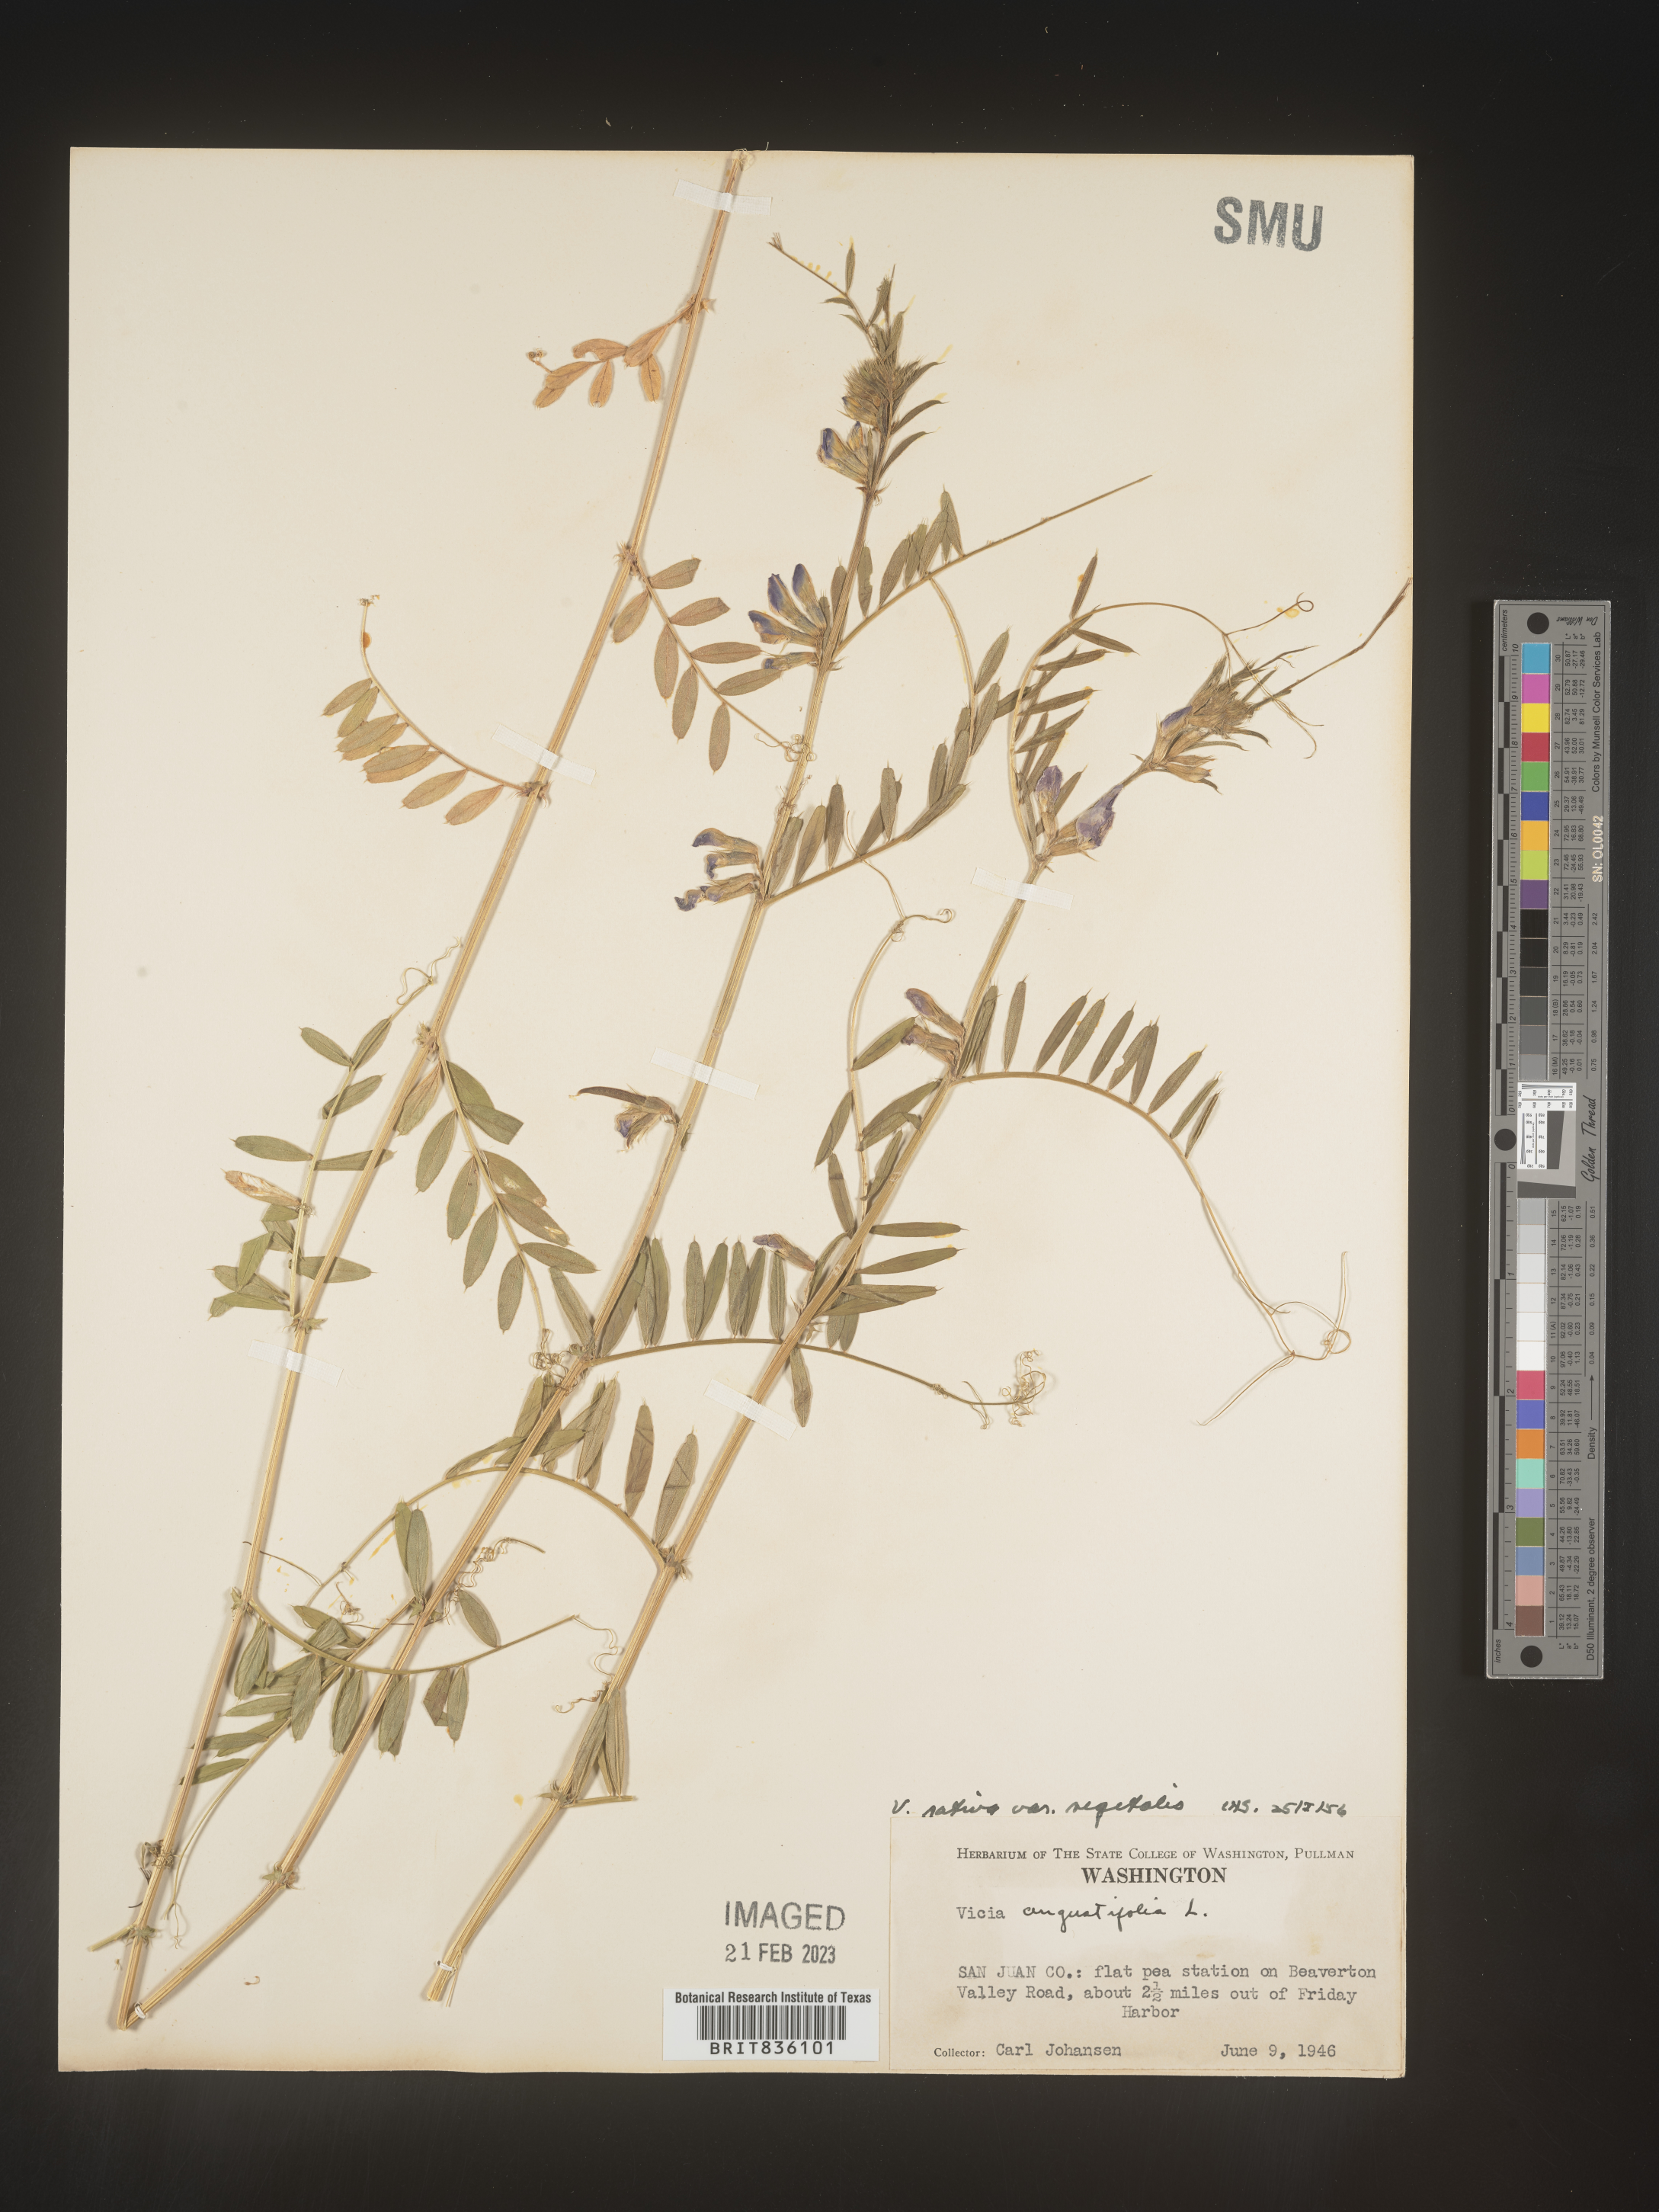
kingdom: Plantae
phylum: Tracheophyta
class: Magnoliopsida
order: Fabales
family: Fabaceae
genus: Vicia
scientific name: Vicia sativa
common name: Garden vetch
